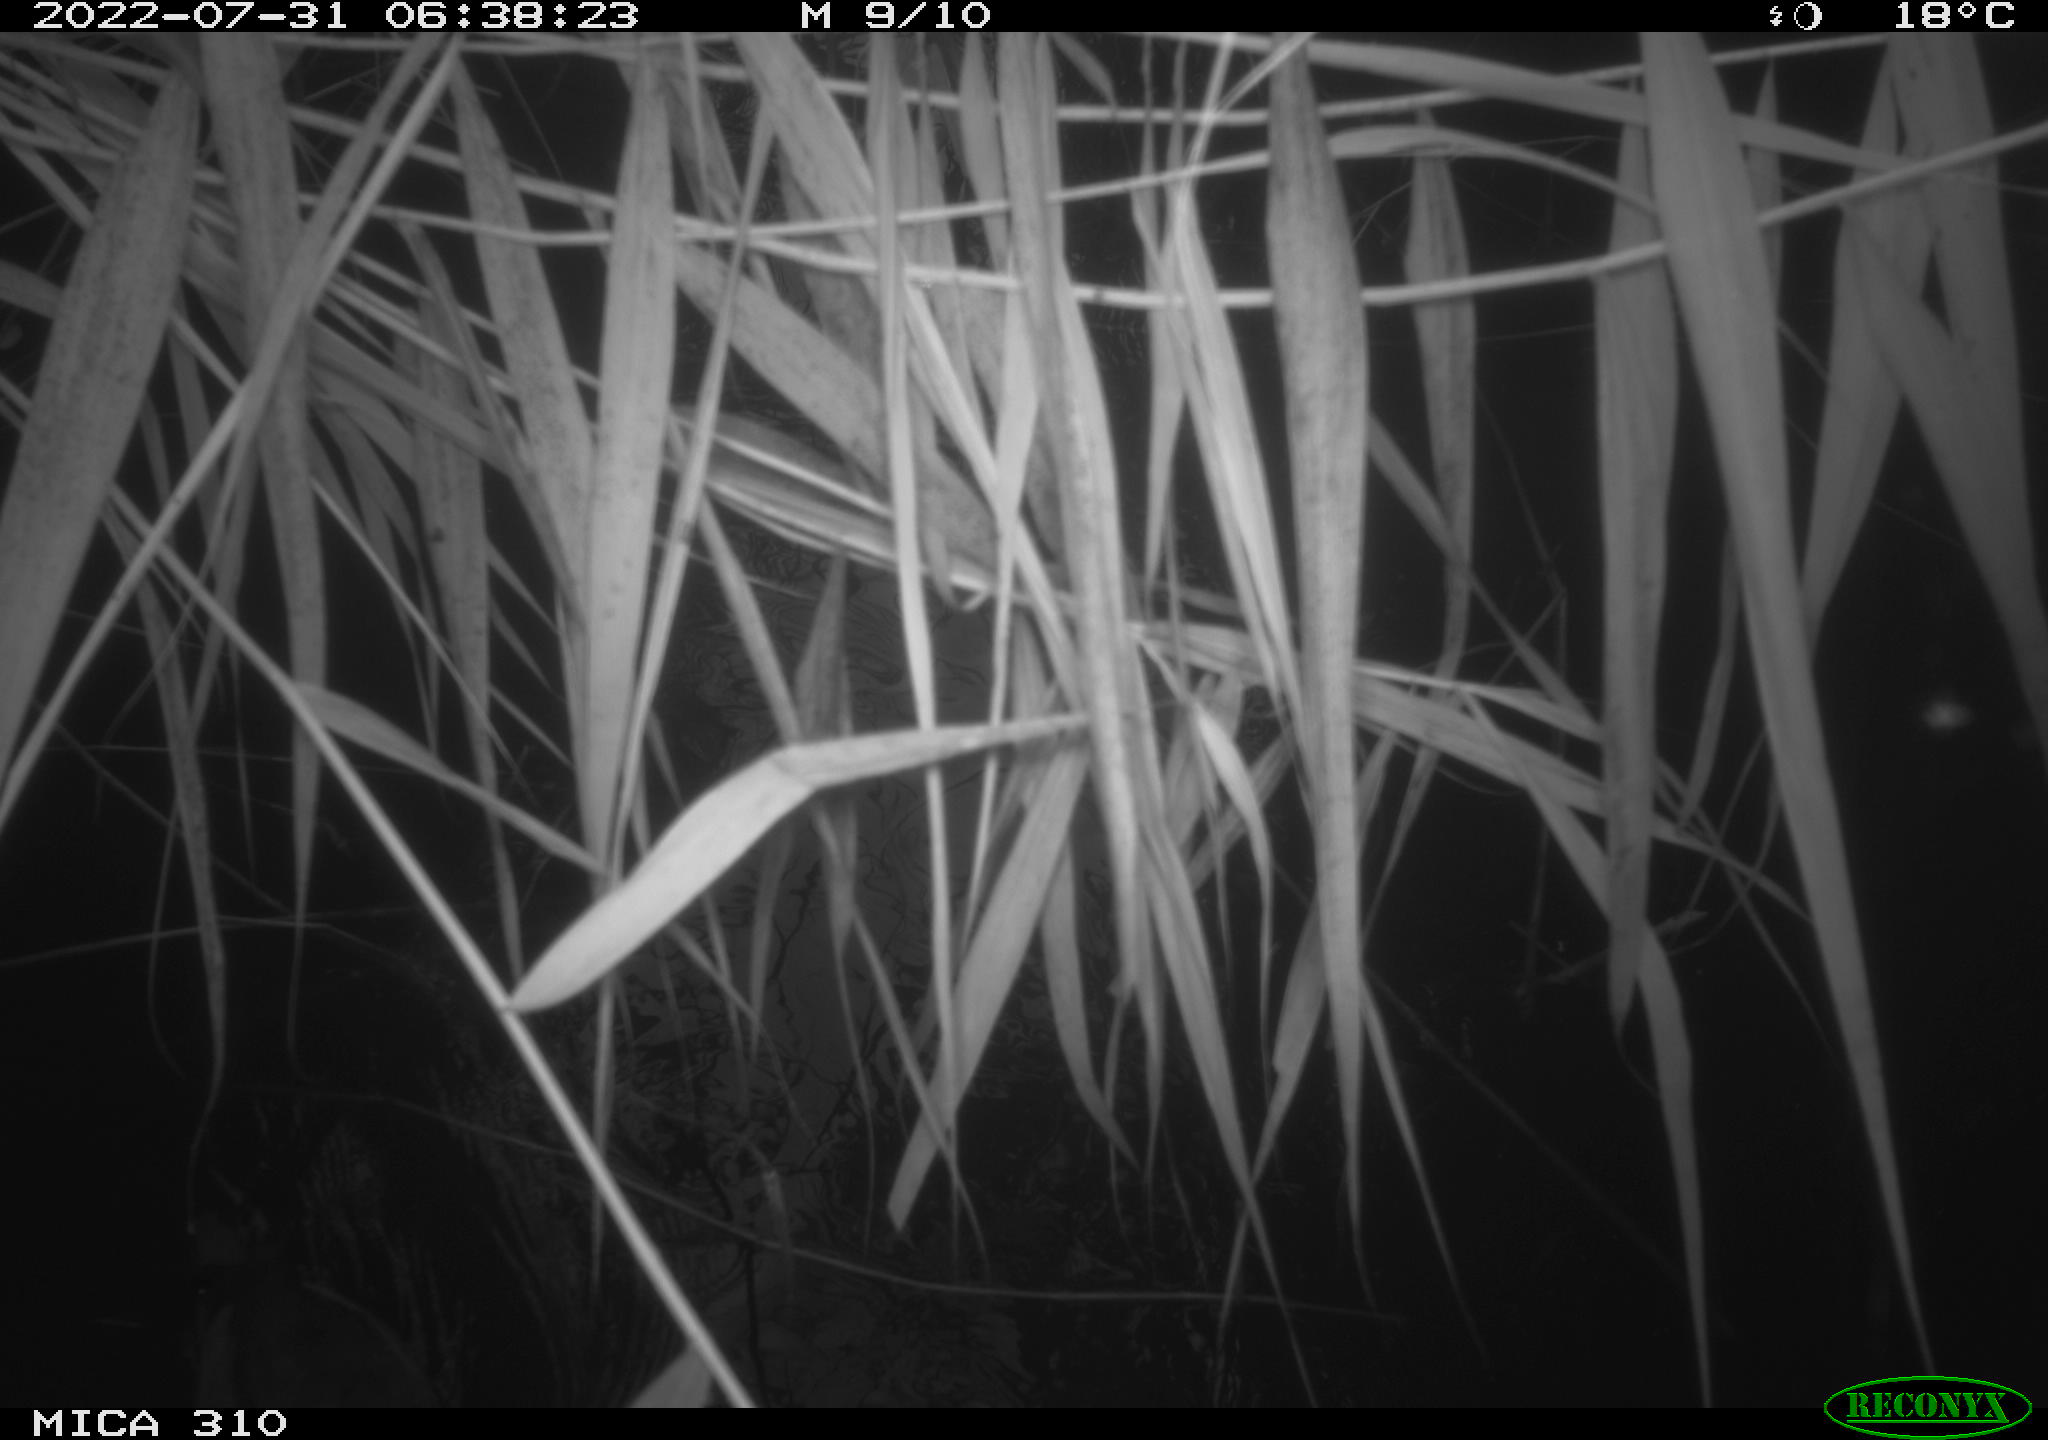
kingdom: Animalia
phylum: Chordata
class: Aves
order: Gruiformes
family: Rallidae
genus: Fulica
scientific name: Fulica atra
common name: Eurasian coot
